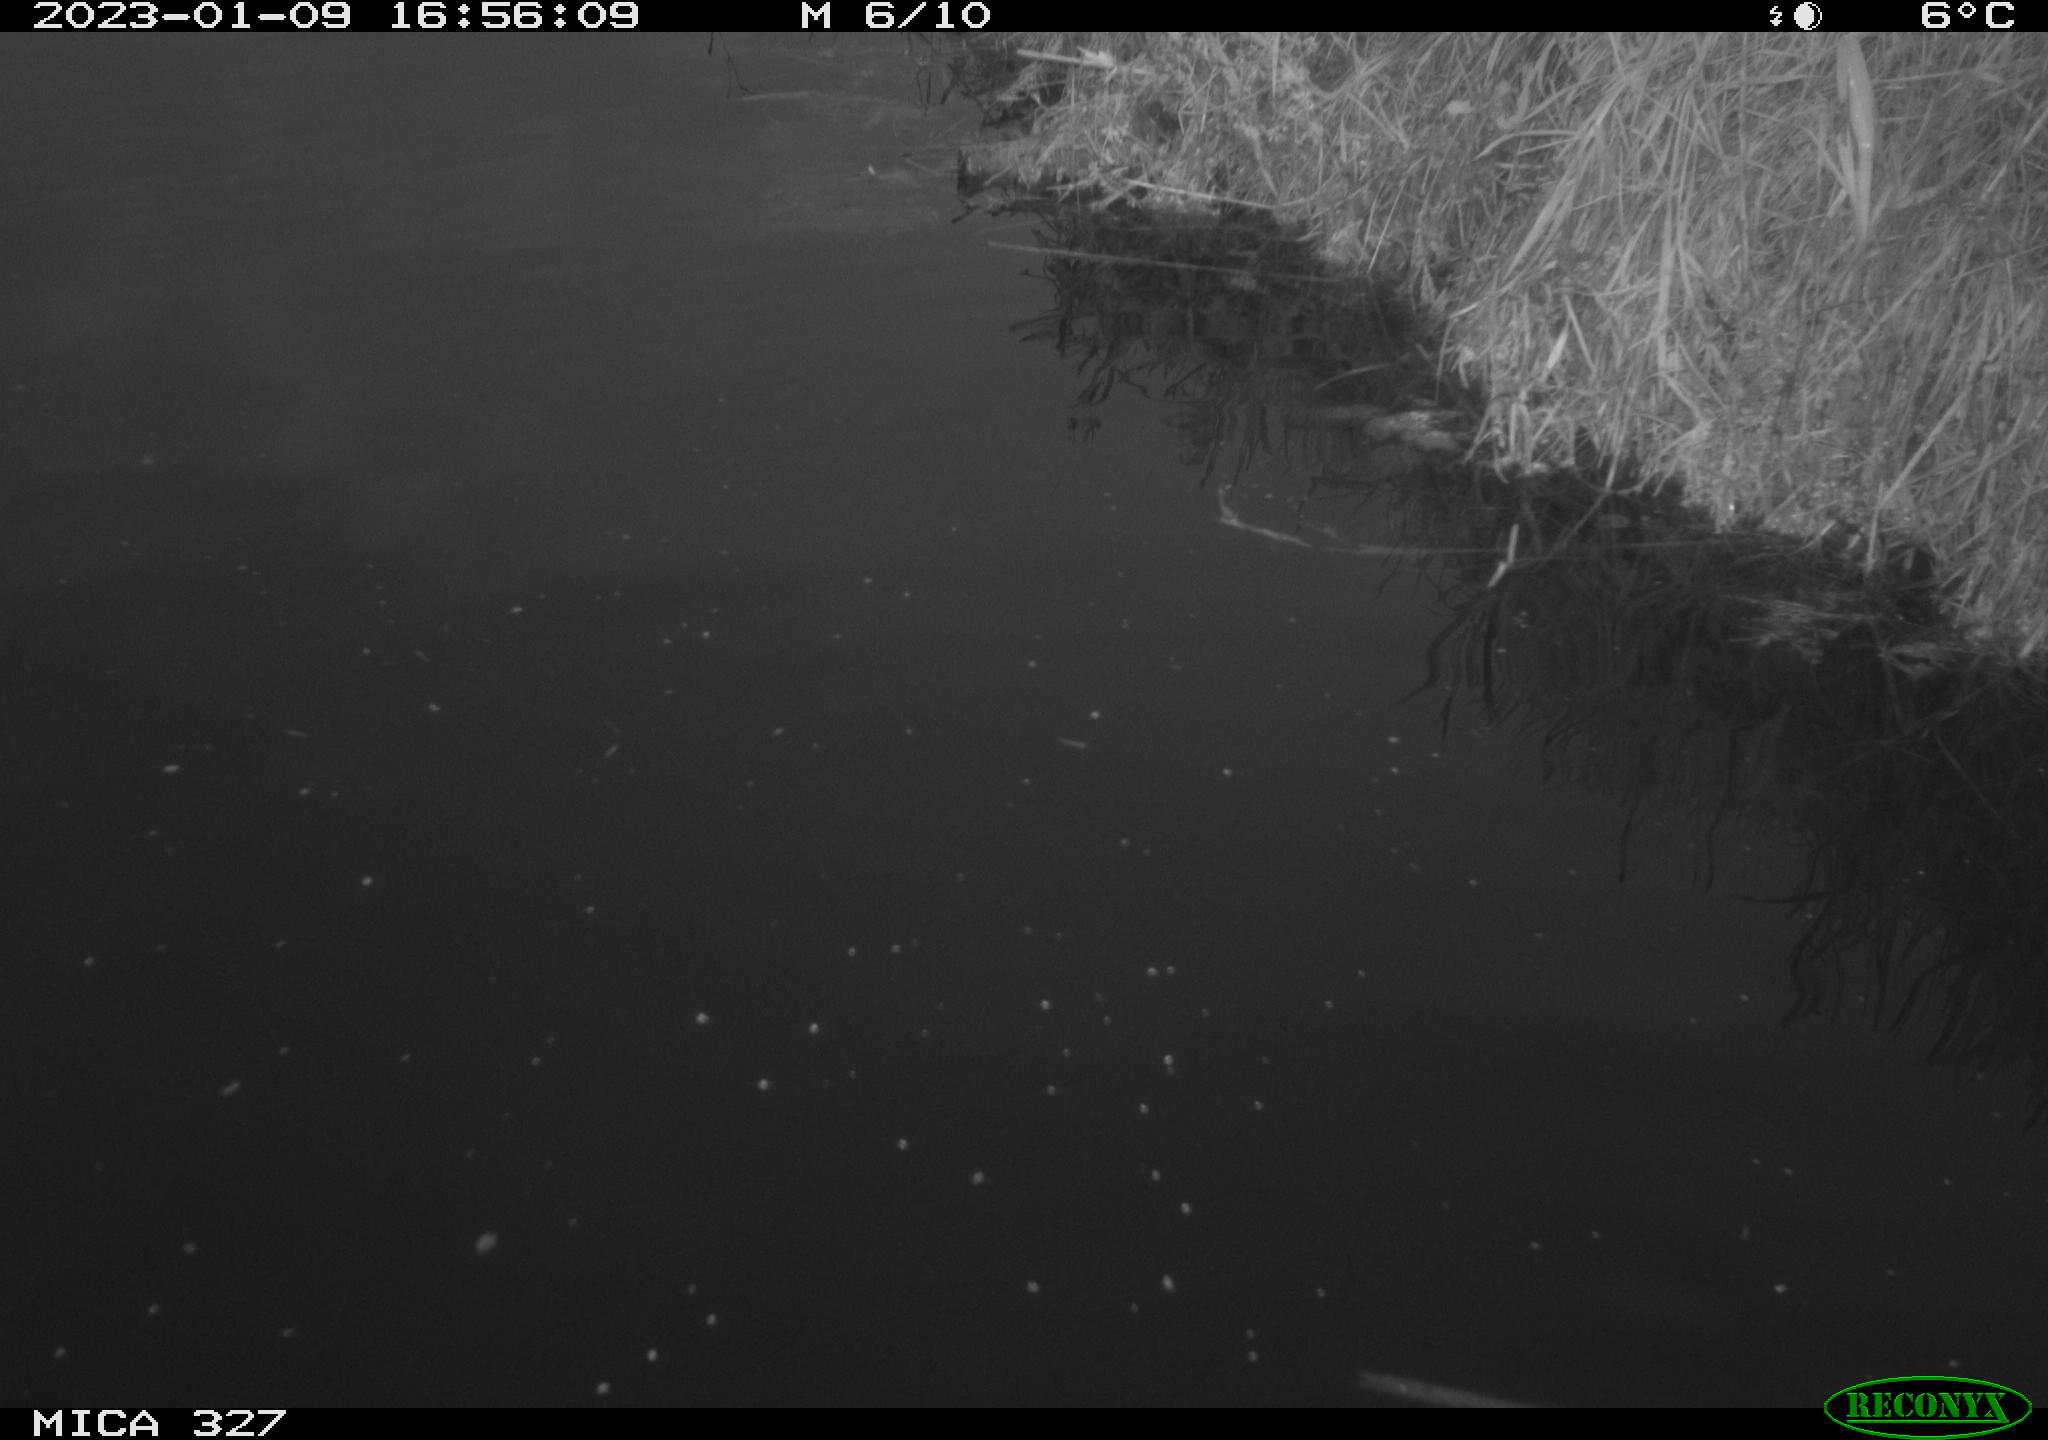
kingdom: Animalia
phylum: Chordata
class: Aves
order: Gruiformes
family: Rallidae
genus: Gallinula
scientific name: Gallinula chloropus
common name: Common moorhen
